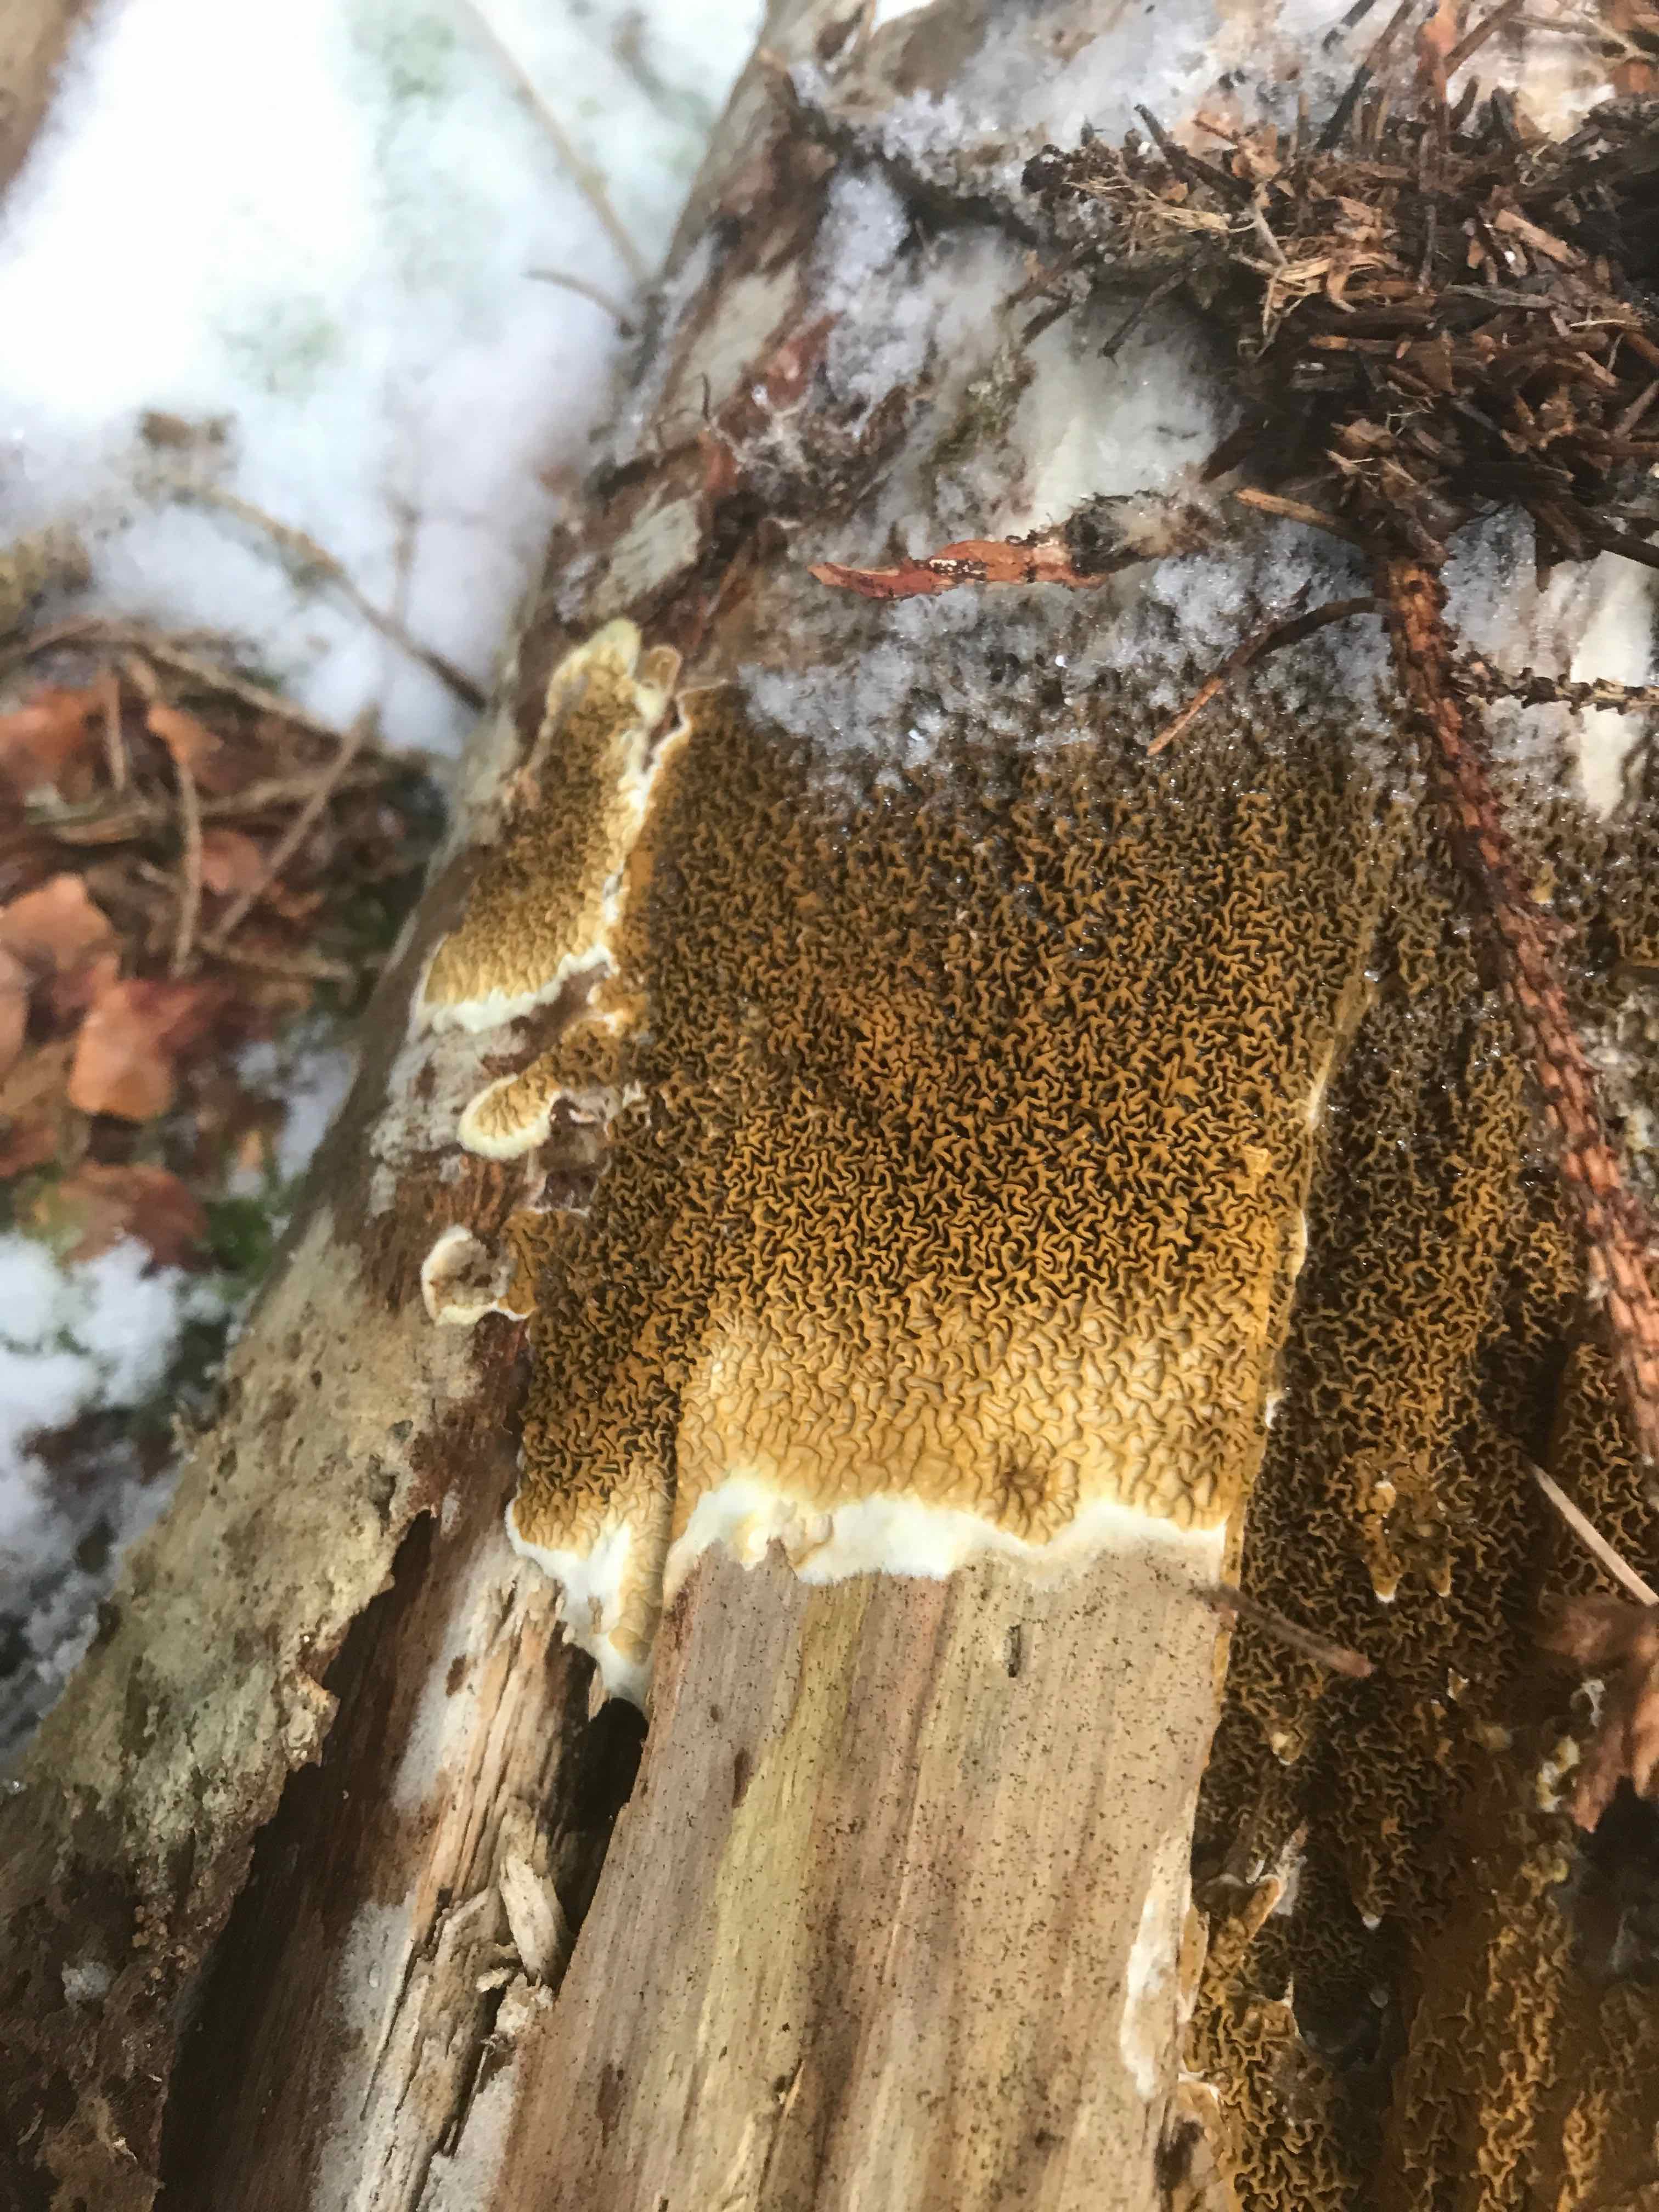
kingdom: Fungi
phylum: Basidiomycota
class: Agaricomycetes
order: Boletales
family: Serpulaceae
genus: Serpula
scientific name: Serpula himantioides
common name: tyndkødet hussvamp
